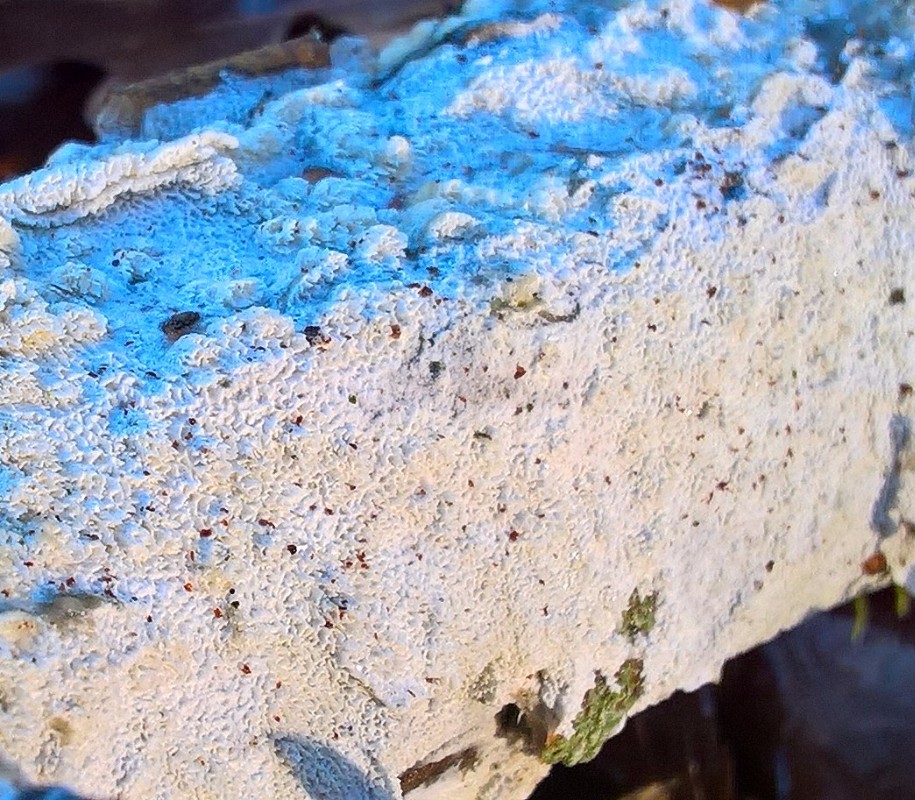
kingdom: Fungi
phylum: Basidiomycota
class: Agaricomycetes
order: Hymenochaetales
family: Schizoporaceae
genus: Schizopora
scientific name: Schizopora paradoxa
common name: hvid tandsvamp
